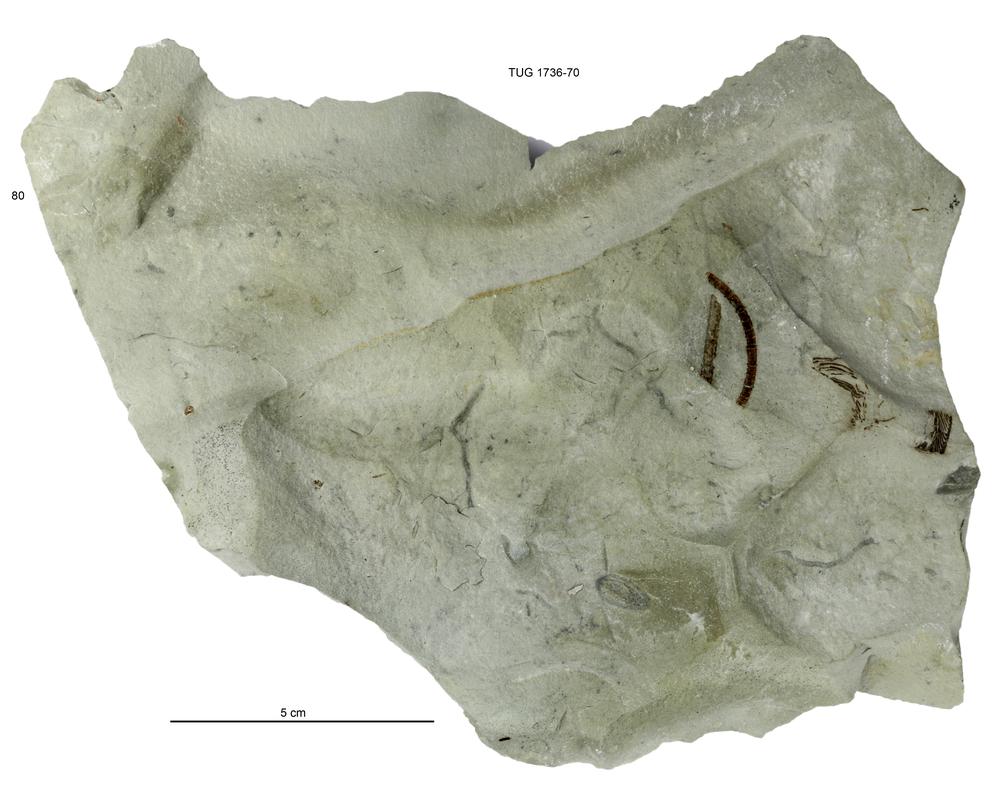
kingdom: Animalia
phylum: Echinodermata
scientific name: Echinodermata
